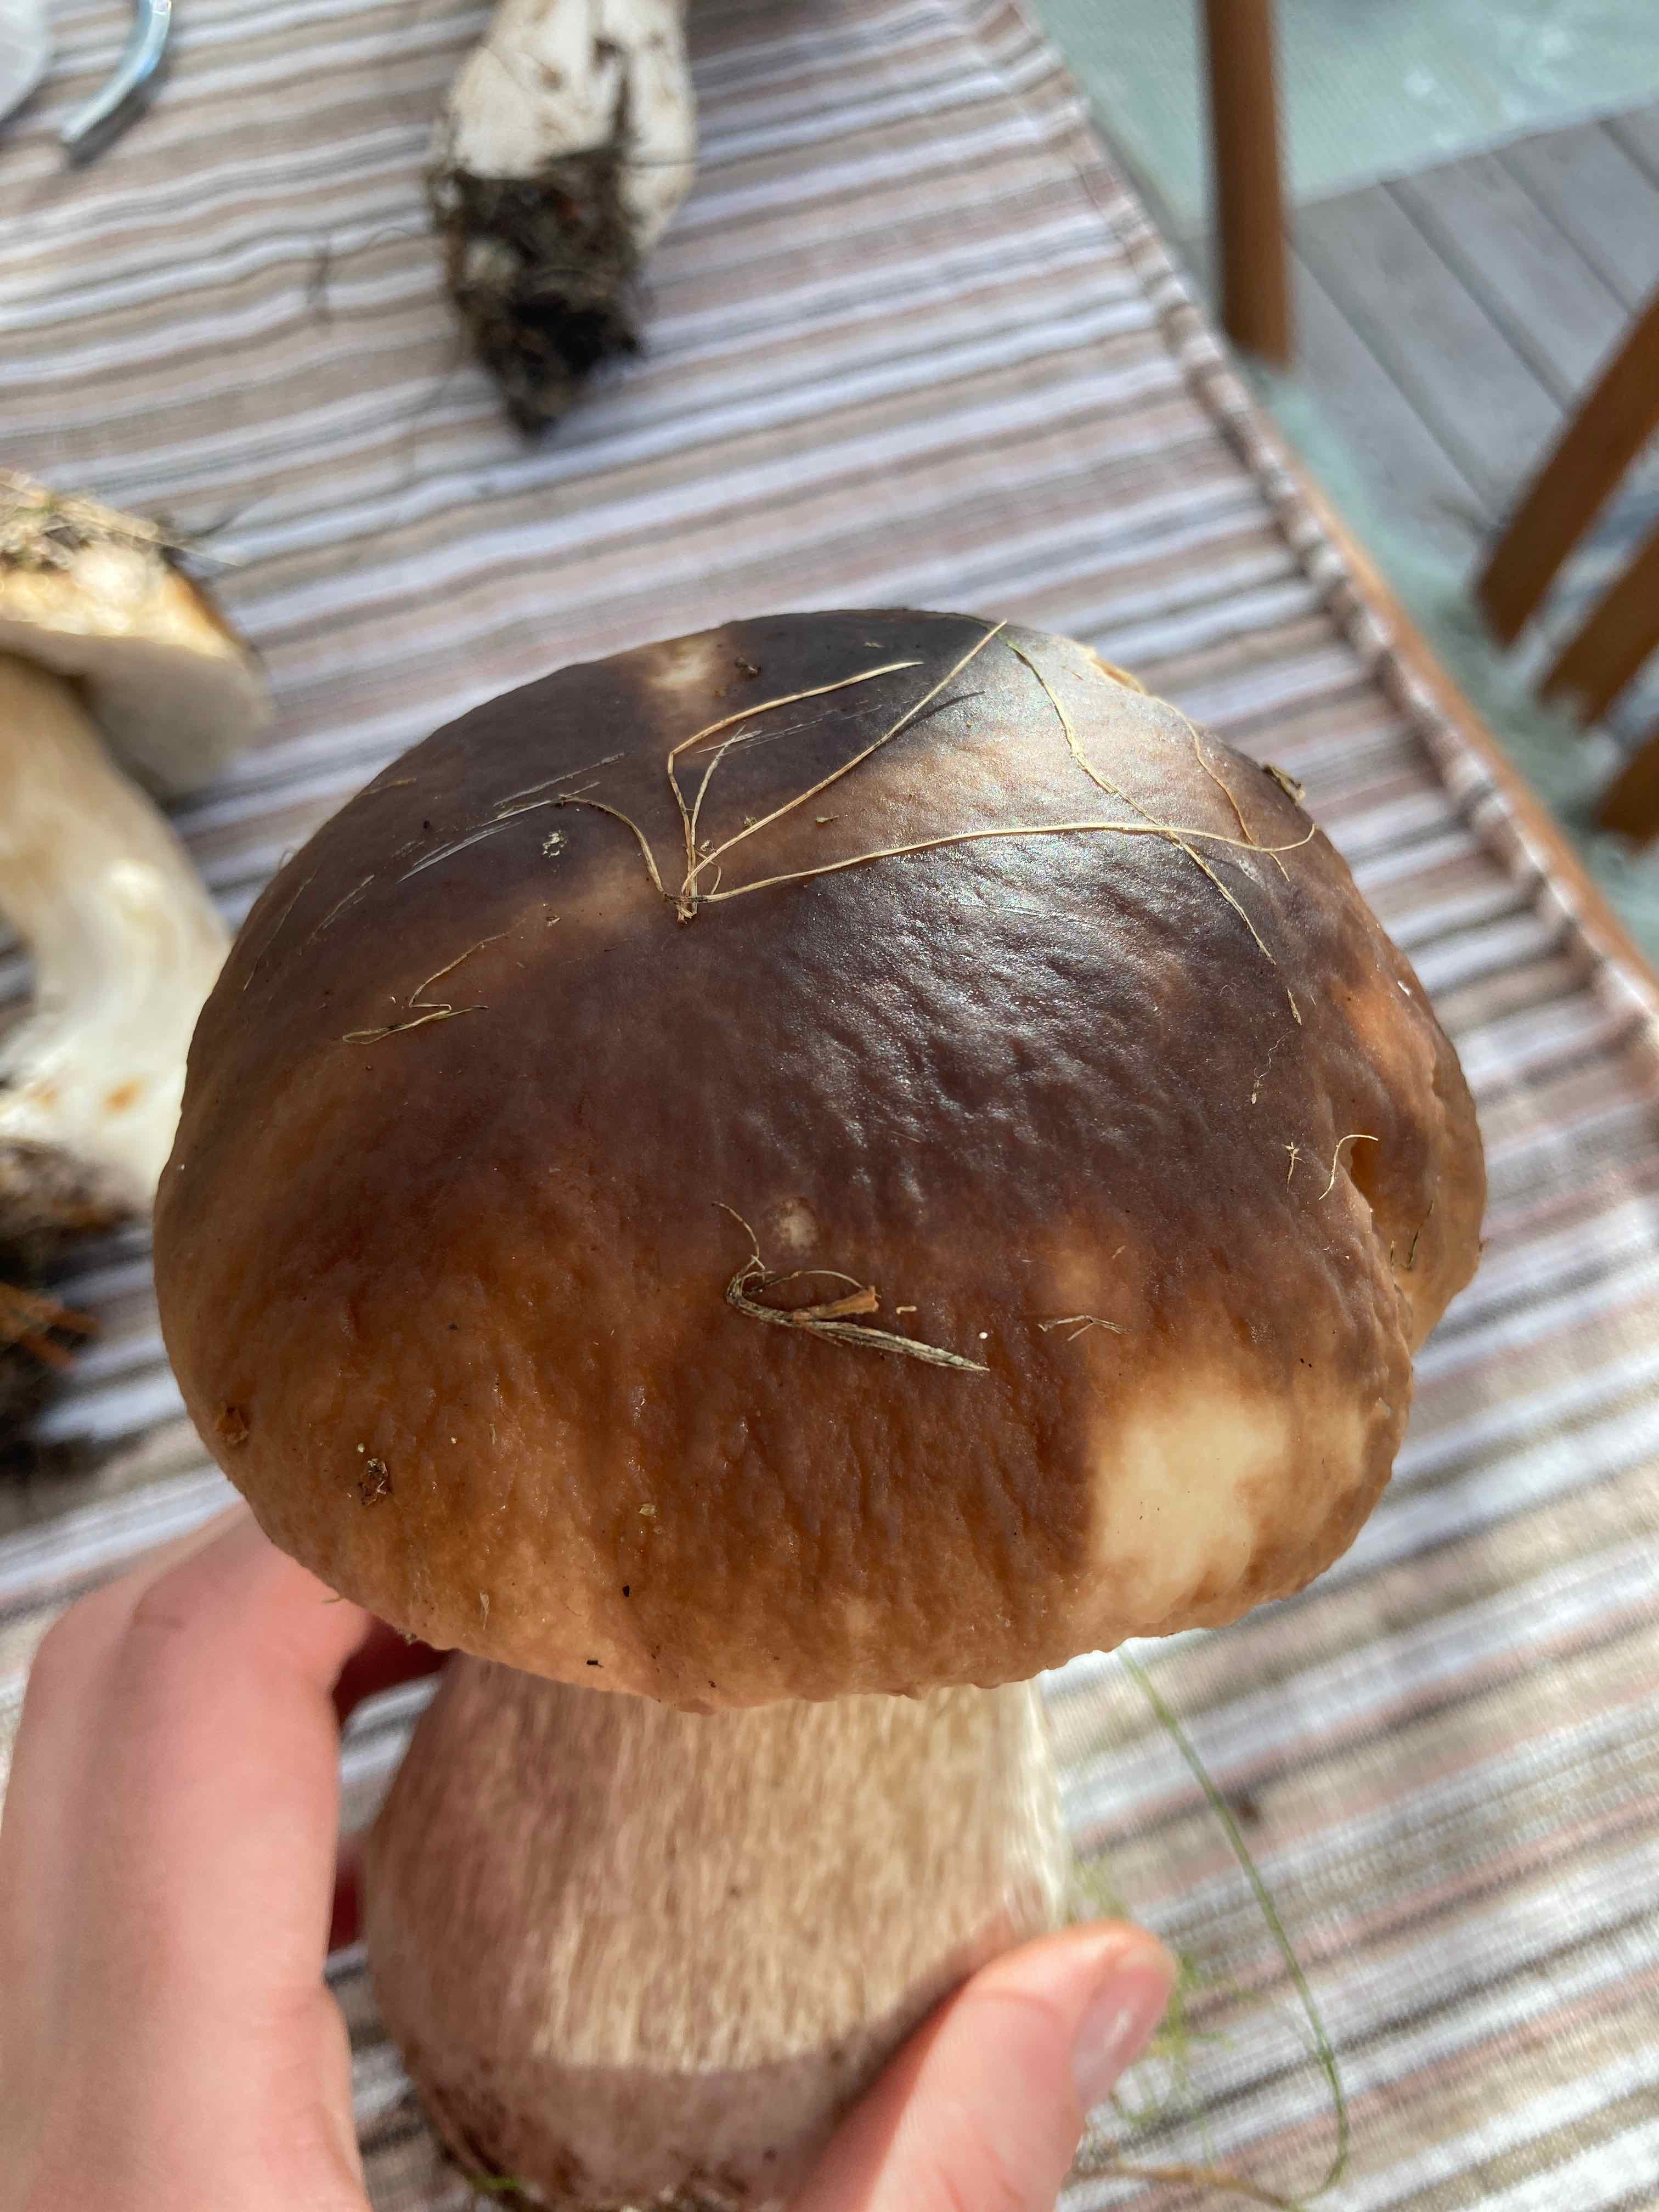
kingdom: Fungi
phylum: Basidiomycota
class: Agaricomycetes
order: Boletales
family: Boletaceae
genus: Boletus
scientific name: Boletus edulis
